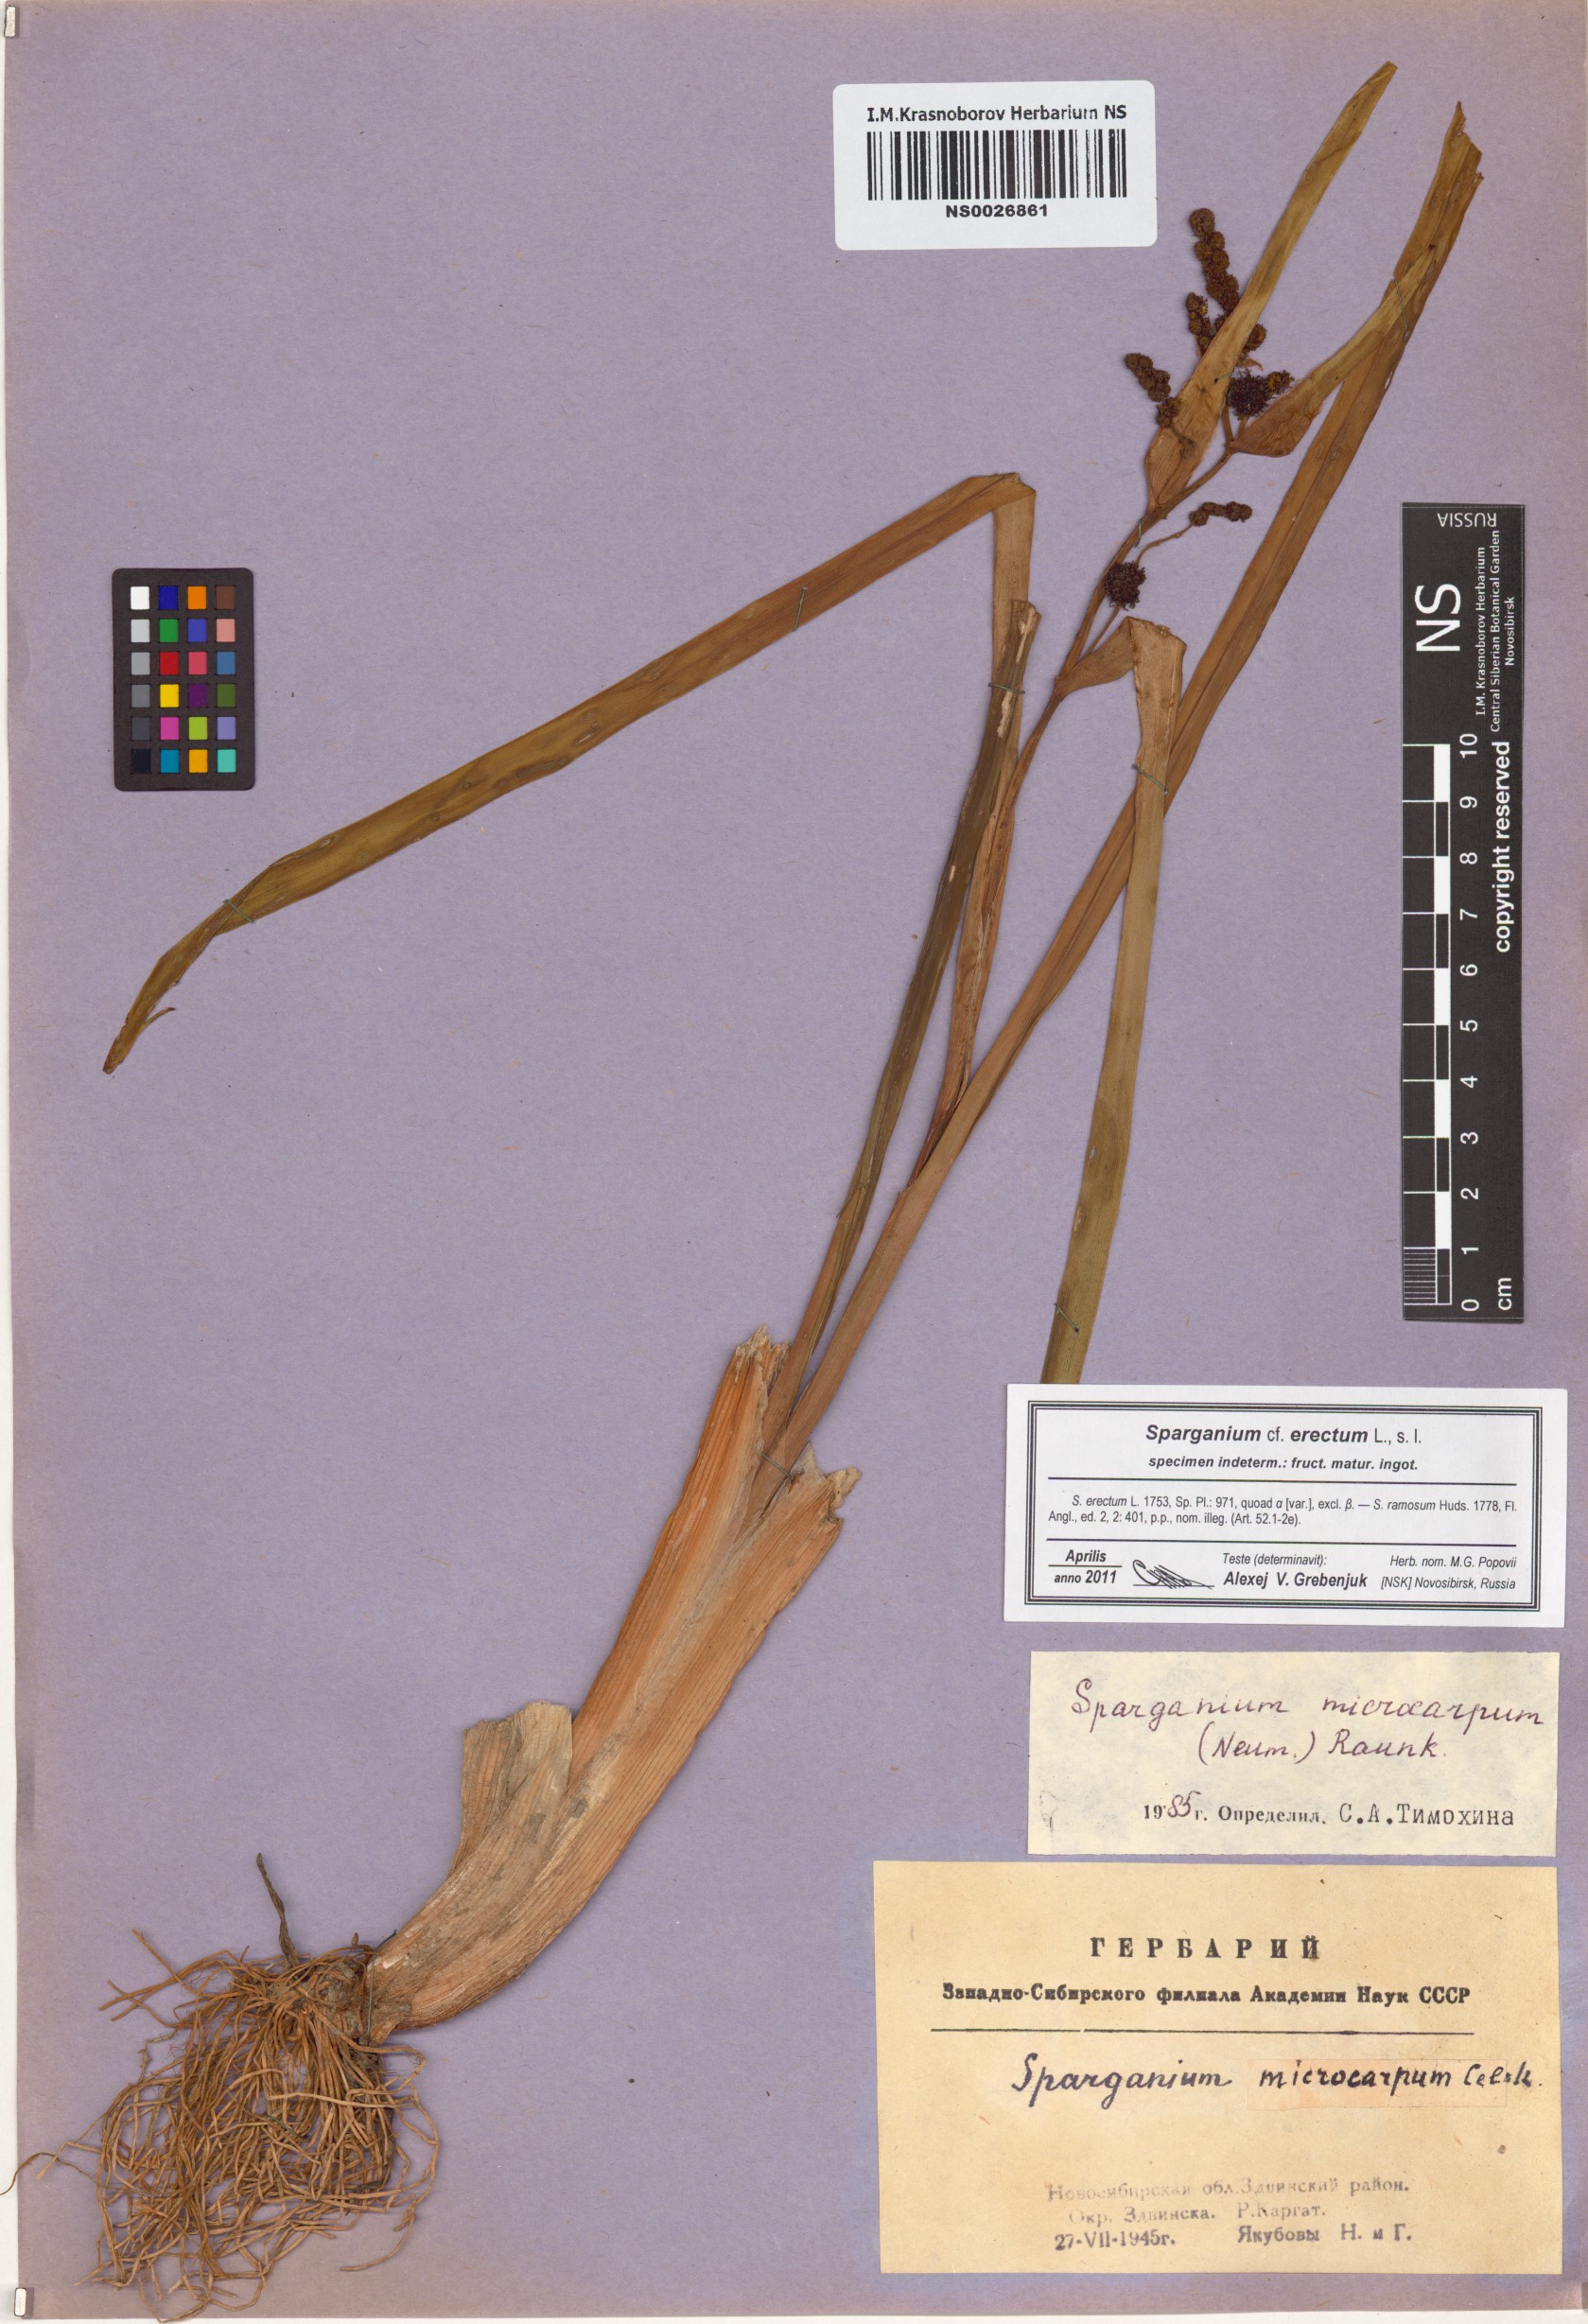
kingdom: Plantae
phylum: Tracheophyta
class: Liliopsida
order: Poales
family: Typhaceae
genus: Sparganium
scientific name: Sparganium erectum
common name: Branched bur-reed
